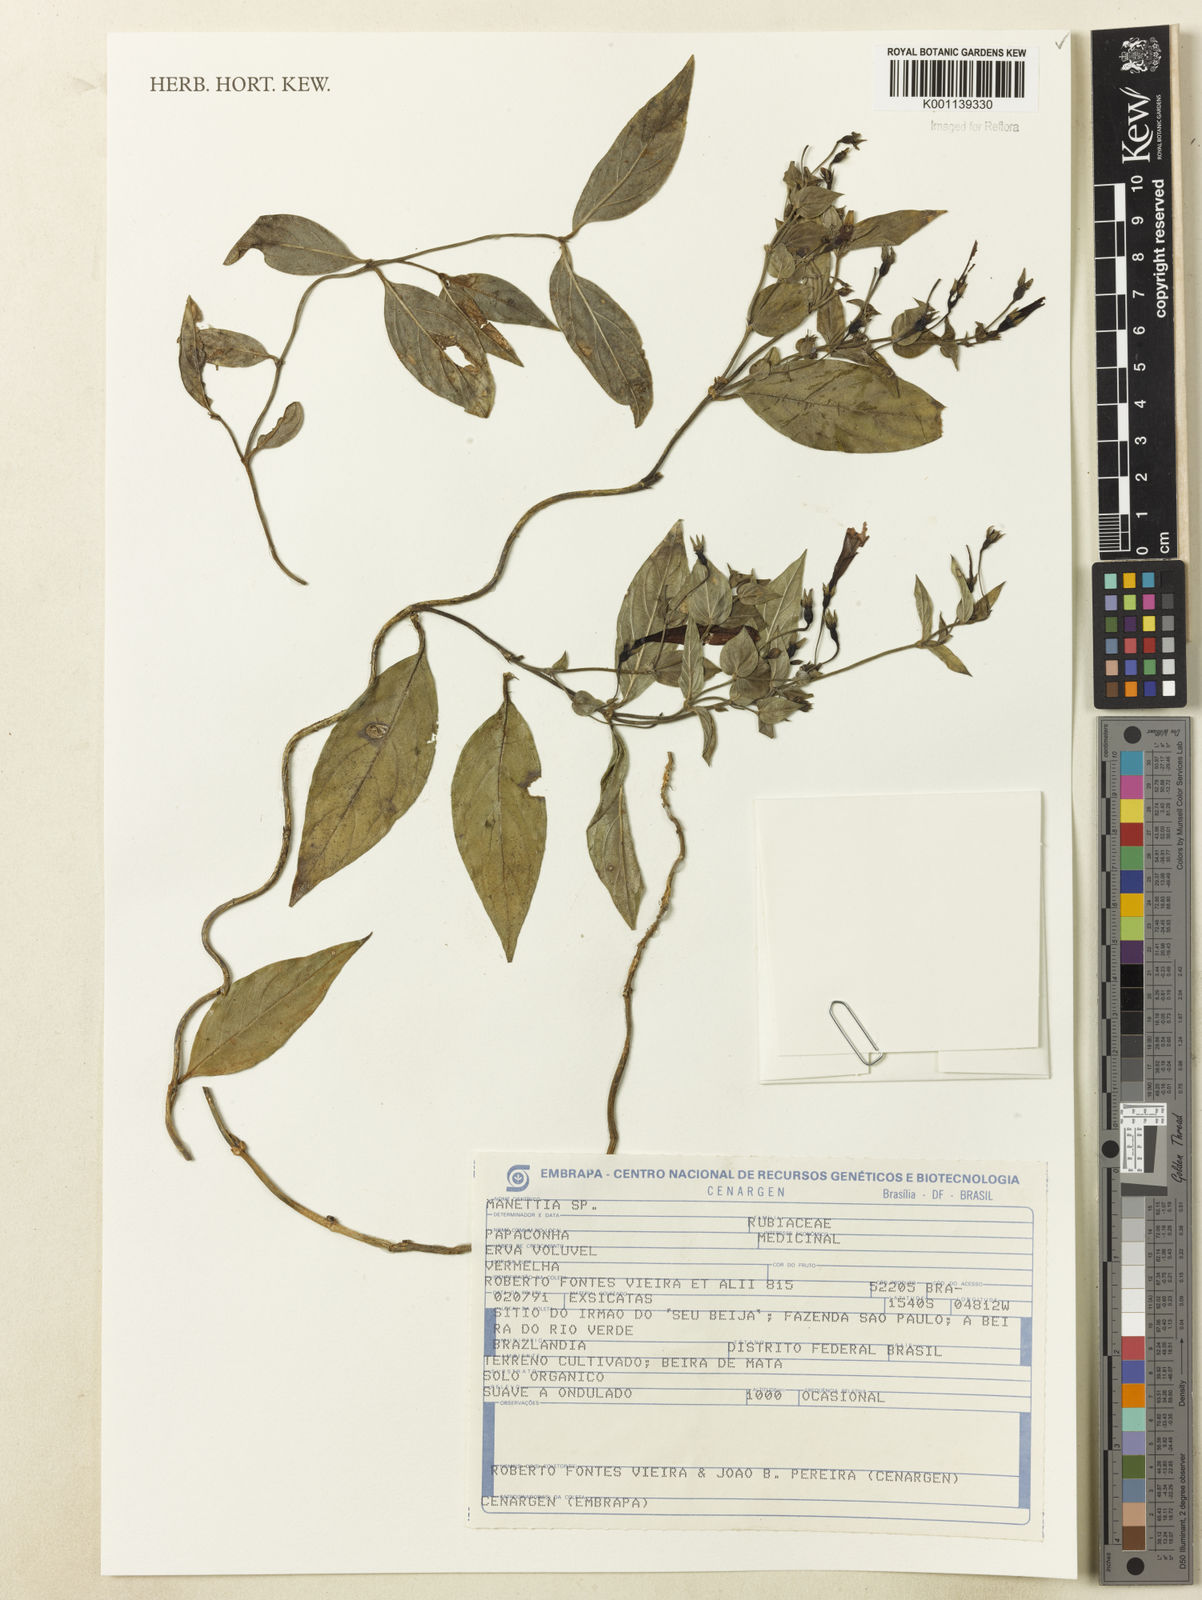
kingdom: Plantae
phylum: Tracheophyta
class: Magnoliopsida
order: Gentianales
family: Rubiaceae
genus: Manettia
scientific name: Manettia
